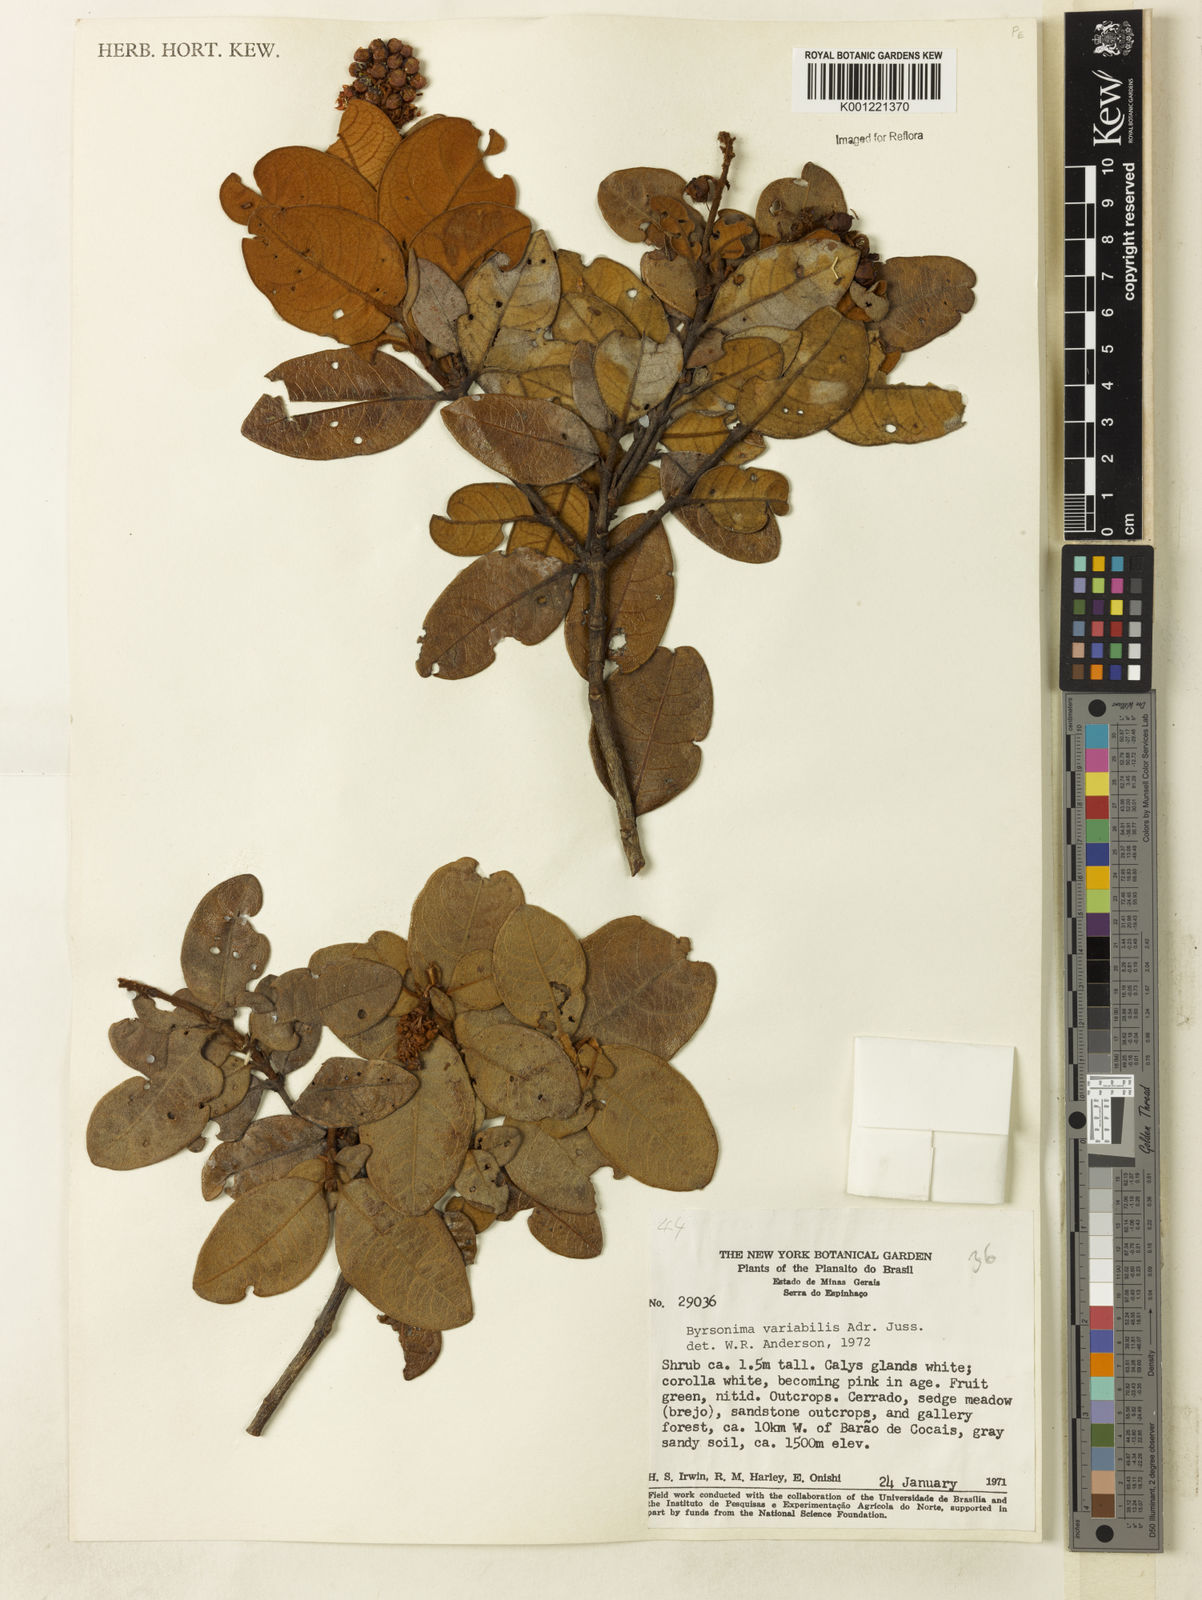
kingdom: Plantae
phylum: Tracheophyta
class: Magnoliopsida
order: Malpighiales
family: Malpighiaceae
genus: Byrsonima
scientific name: Byrsonima variabilis
